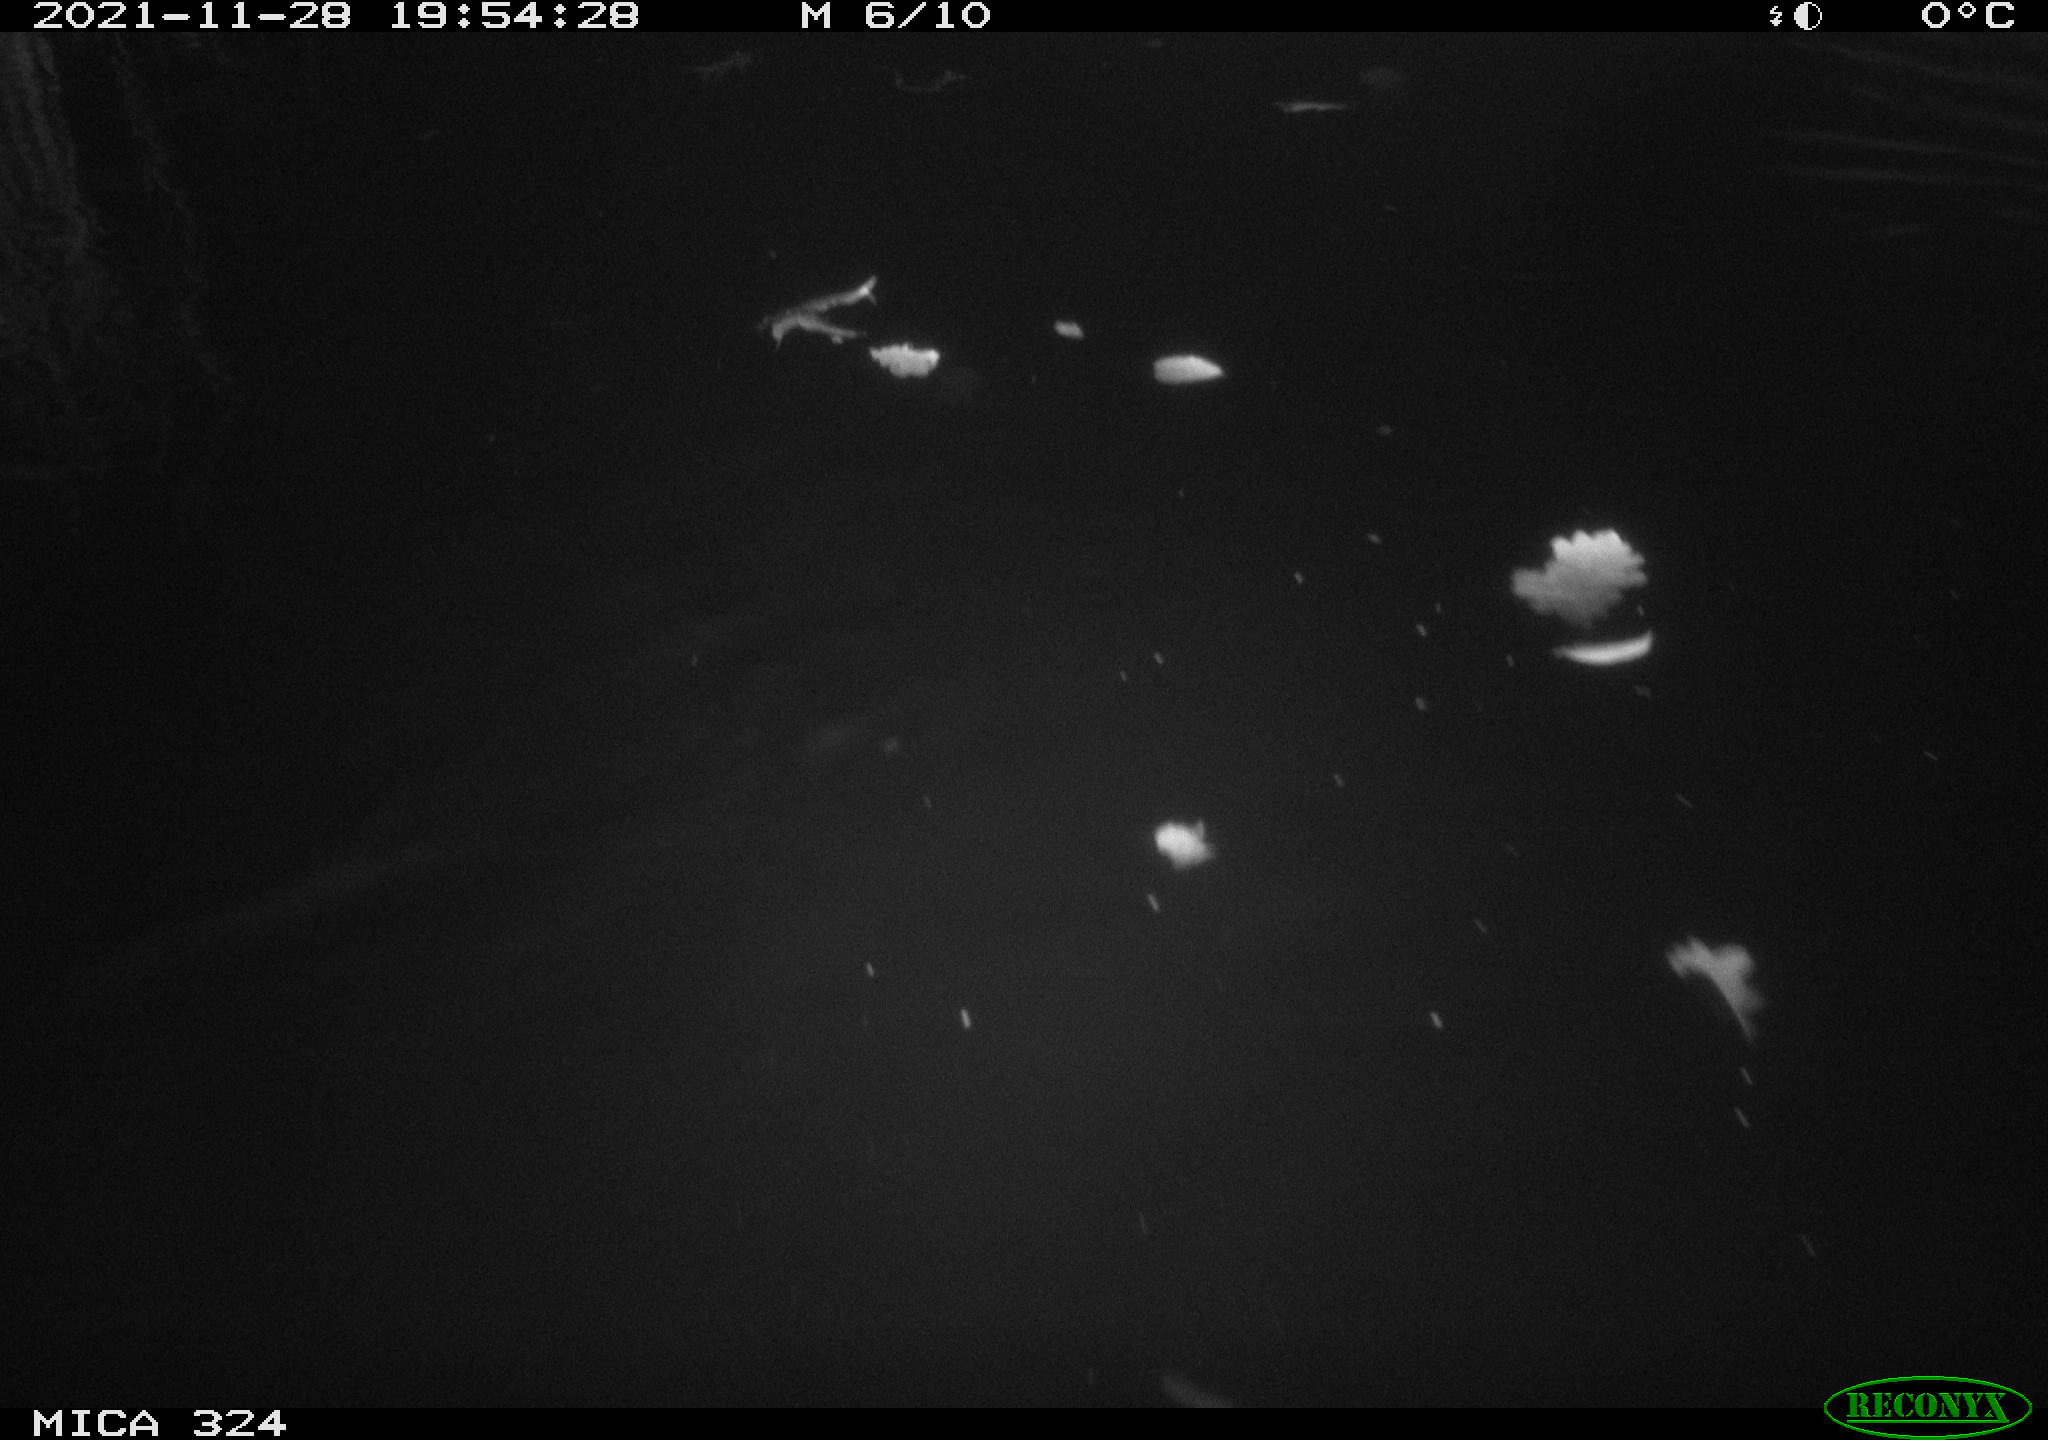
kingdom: Animalia
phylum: Chordata
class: Mammalia
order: Rodentia
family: Cricetidae
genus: Ondatra
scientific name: Ondatra zibethicus
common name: Muskrat
